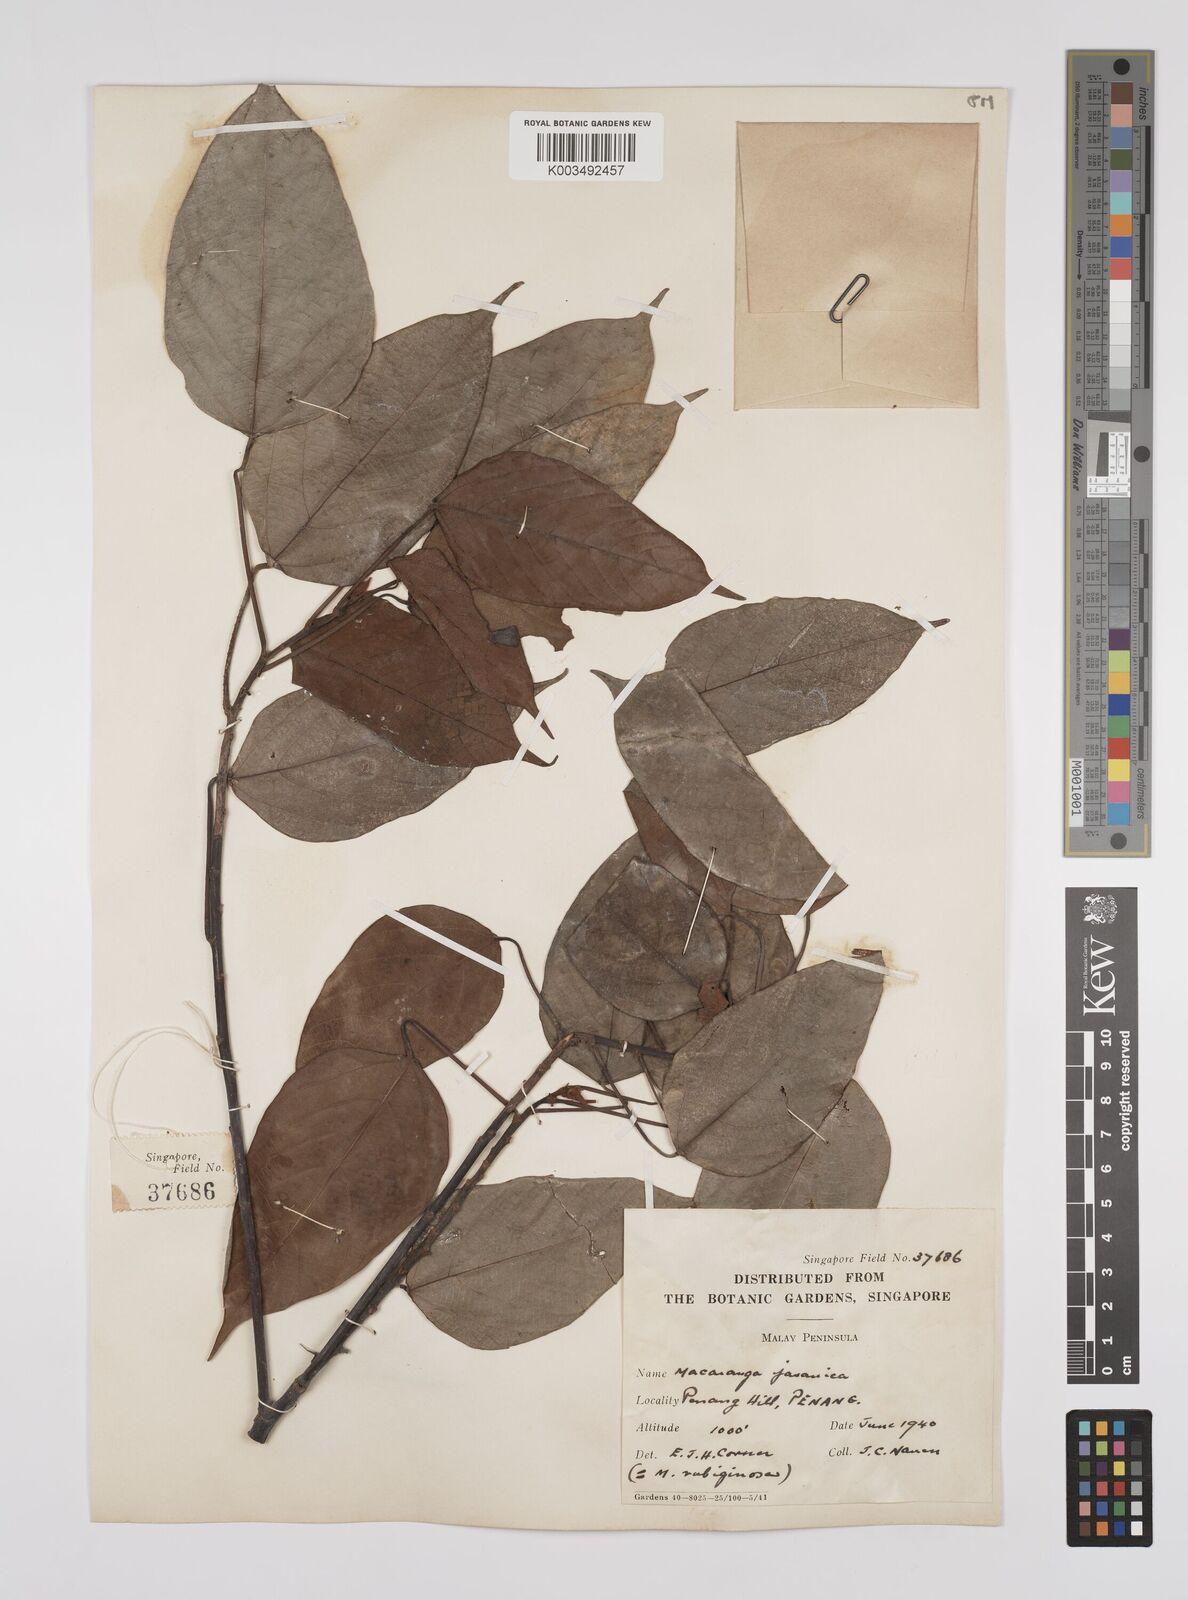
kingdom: Plantae
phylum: Tracheophyta
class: Magnoliopsida
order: Malpighiales
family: Euphorbiaceae
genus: Macaranga
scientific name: Macaranga heynei
